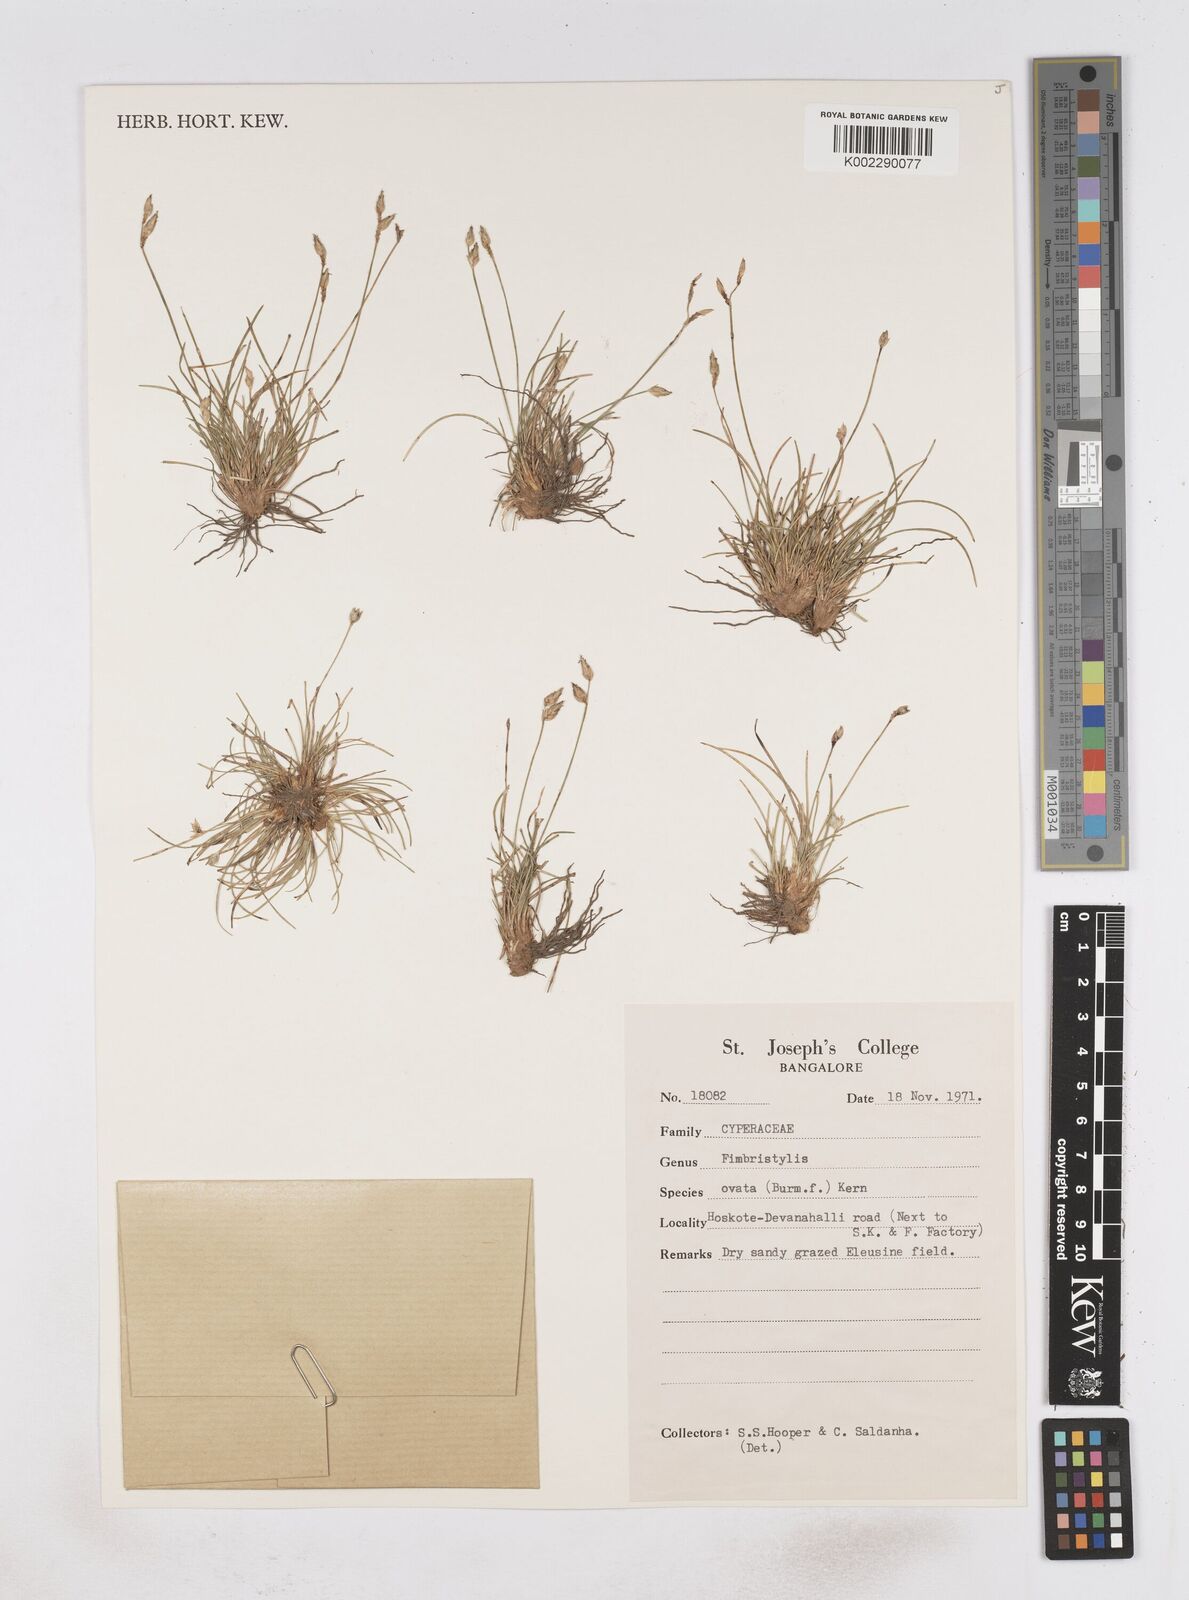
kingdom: Plantae
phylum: Tracheophyta
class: Liliopsida
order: Poales
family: Cyperaceae
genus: Abildgaardia
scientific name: Abildgaardia ovata
